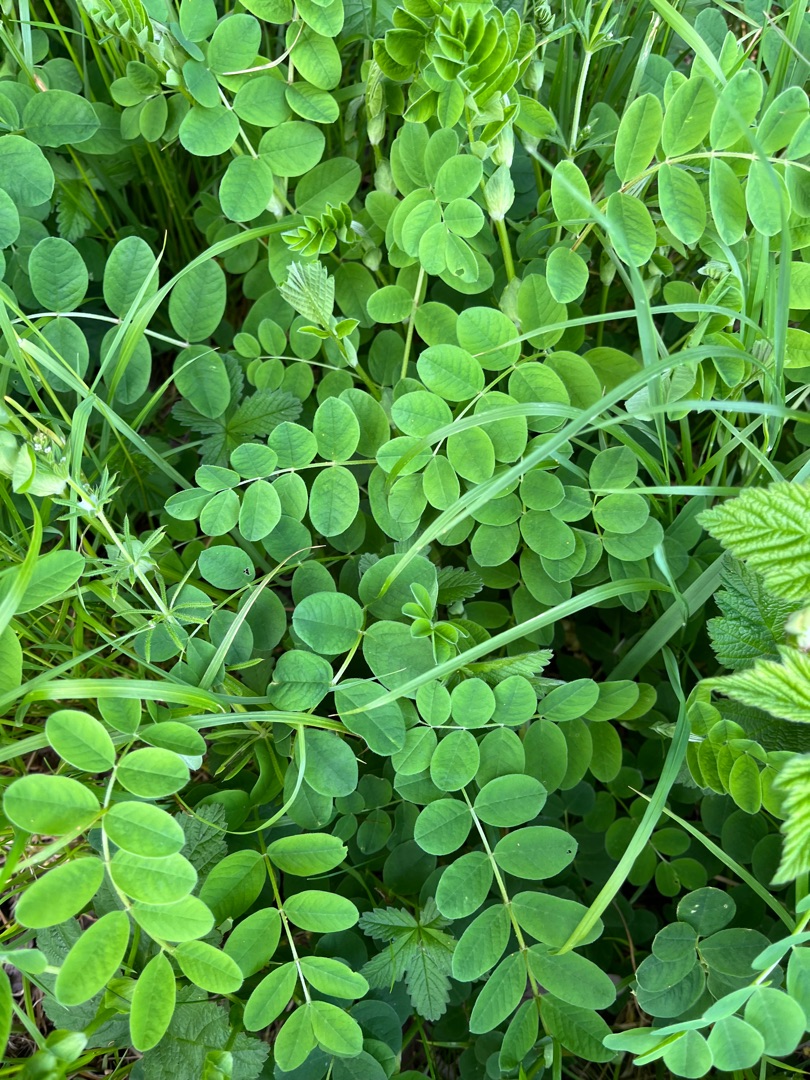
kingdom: Plantae
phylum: Tracheophyta
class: Magnoliopsida
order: Fabales
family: Fabaceae
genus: Astragalus
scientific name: Astragalus glycyphyllos
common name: Sød astragel
